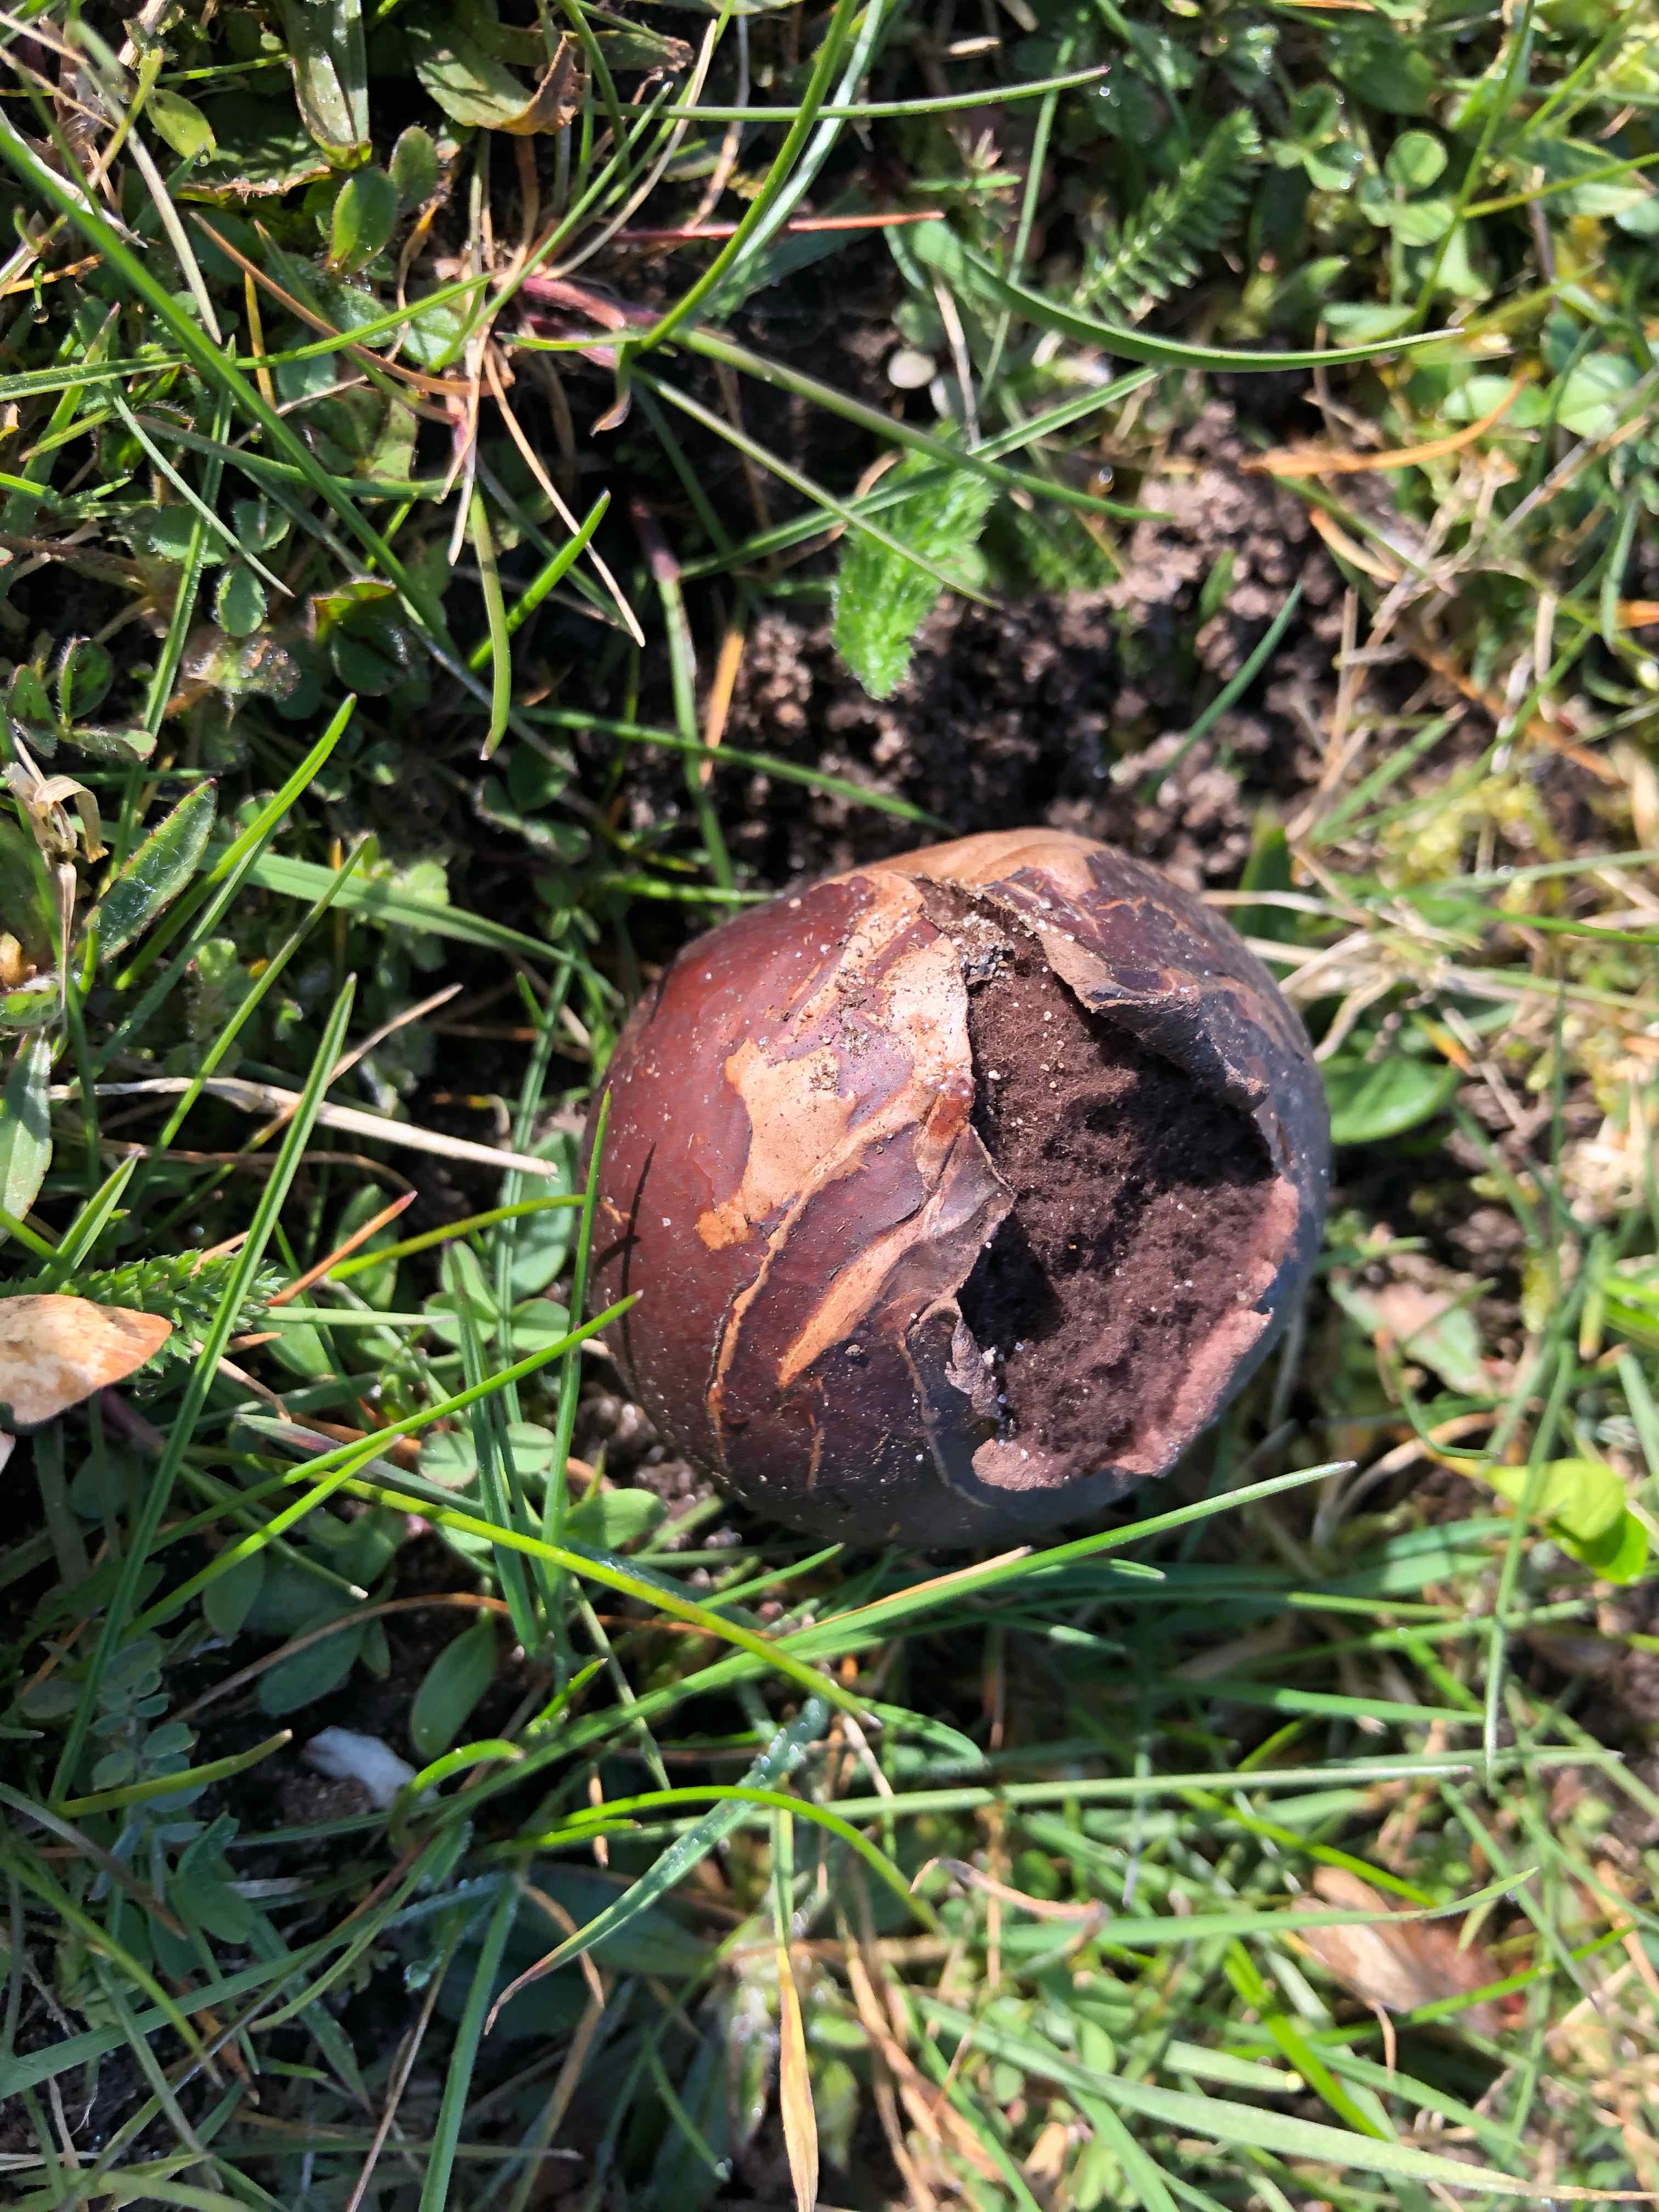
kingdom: Fungi
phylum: Basidiomycota
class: Agaricomycetes
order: Agaricales
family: Lycoperdaceae
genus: Bovista
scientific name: Bovista nigrescens
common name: sortagtig bovist
